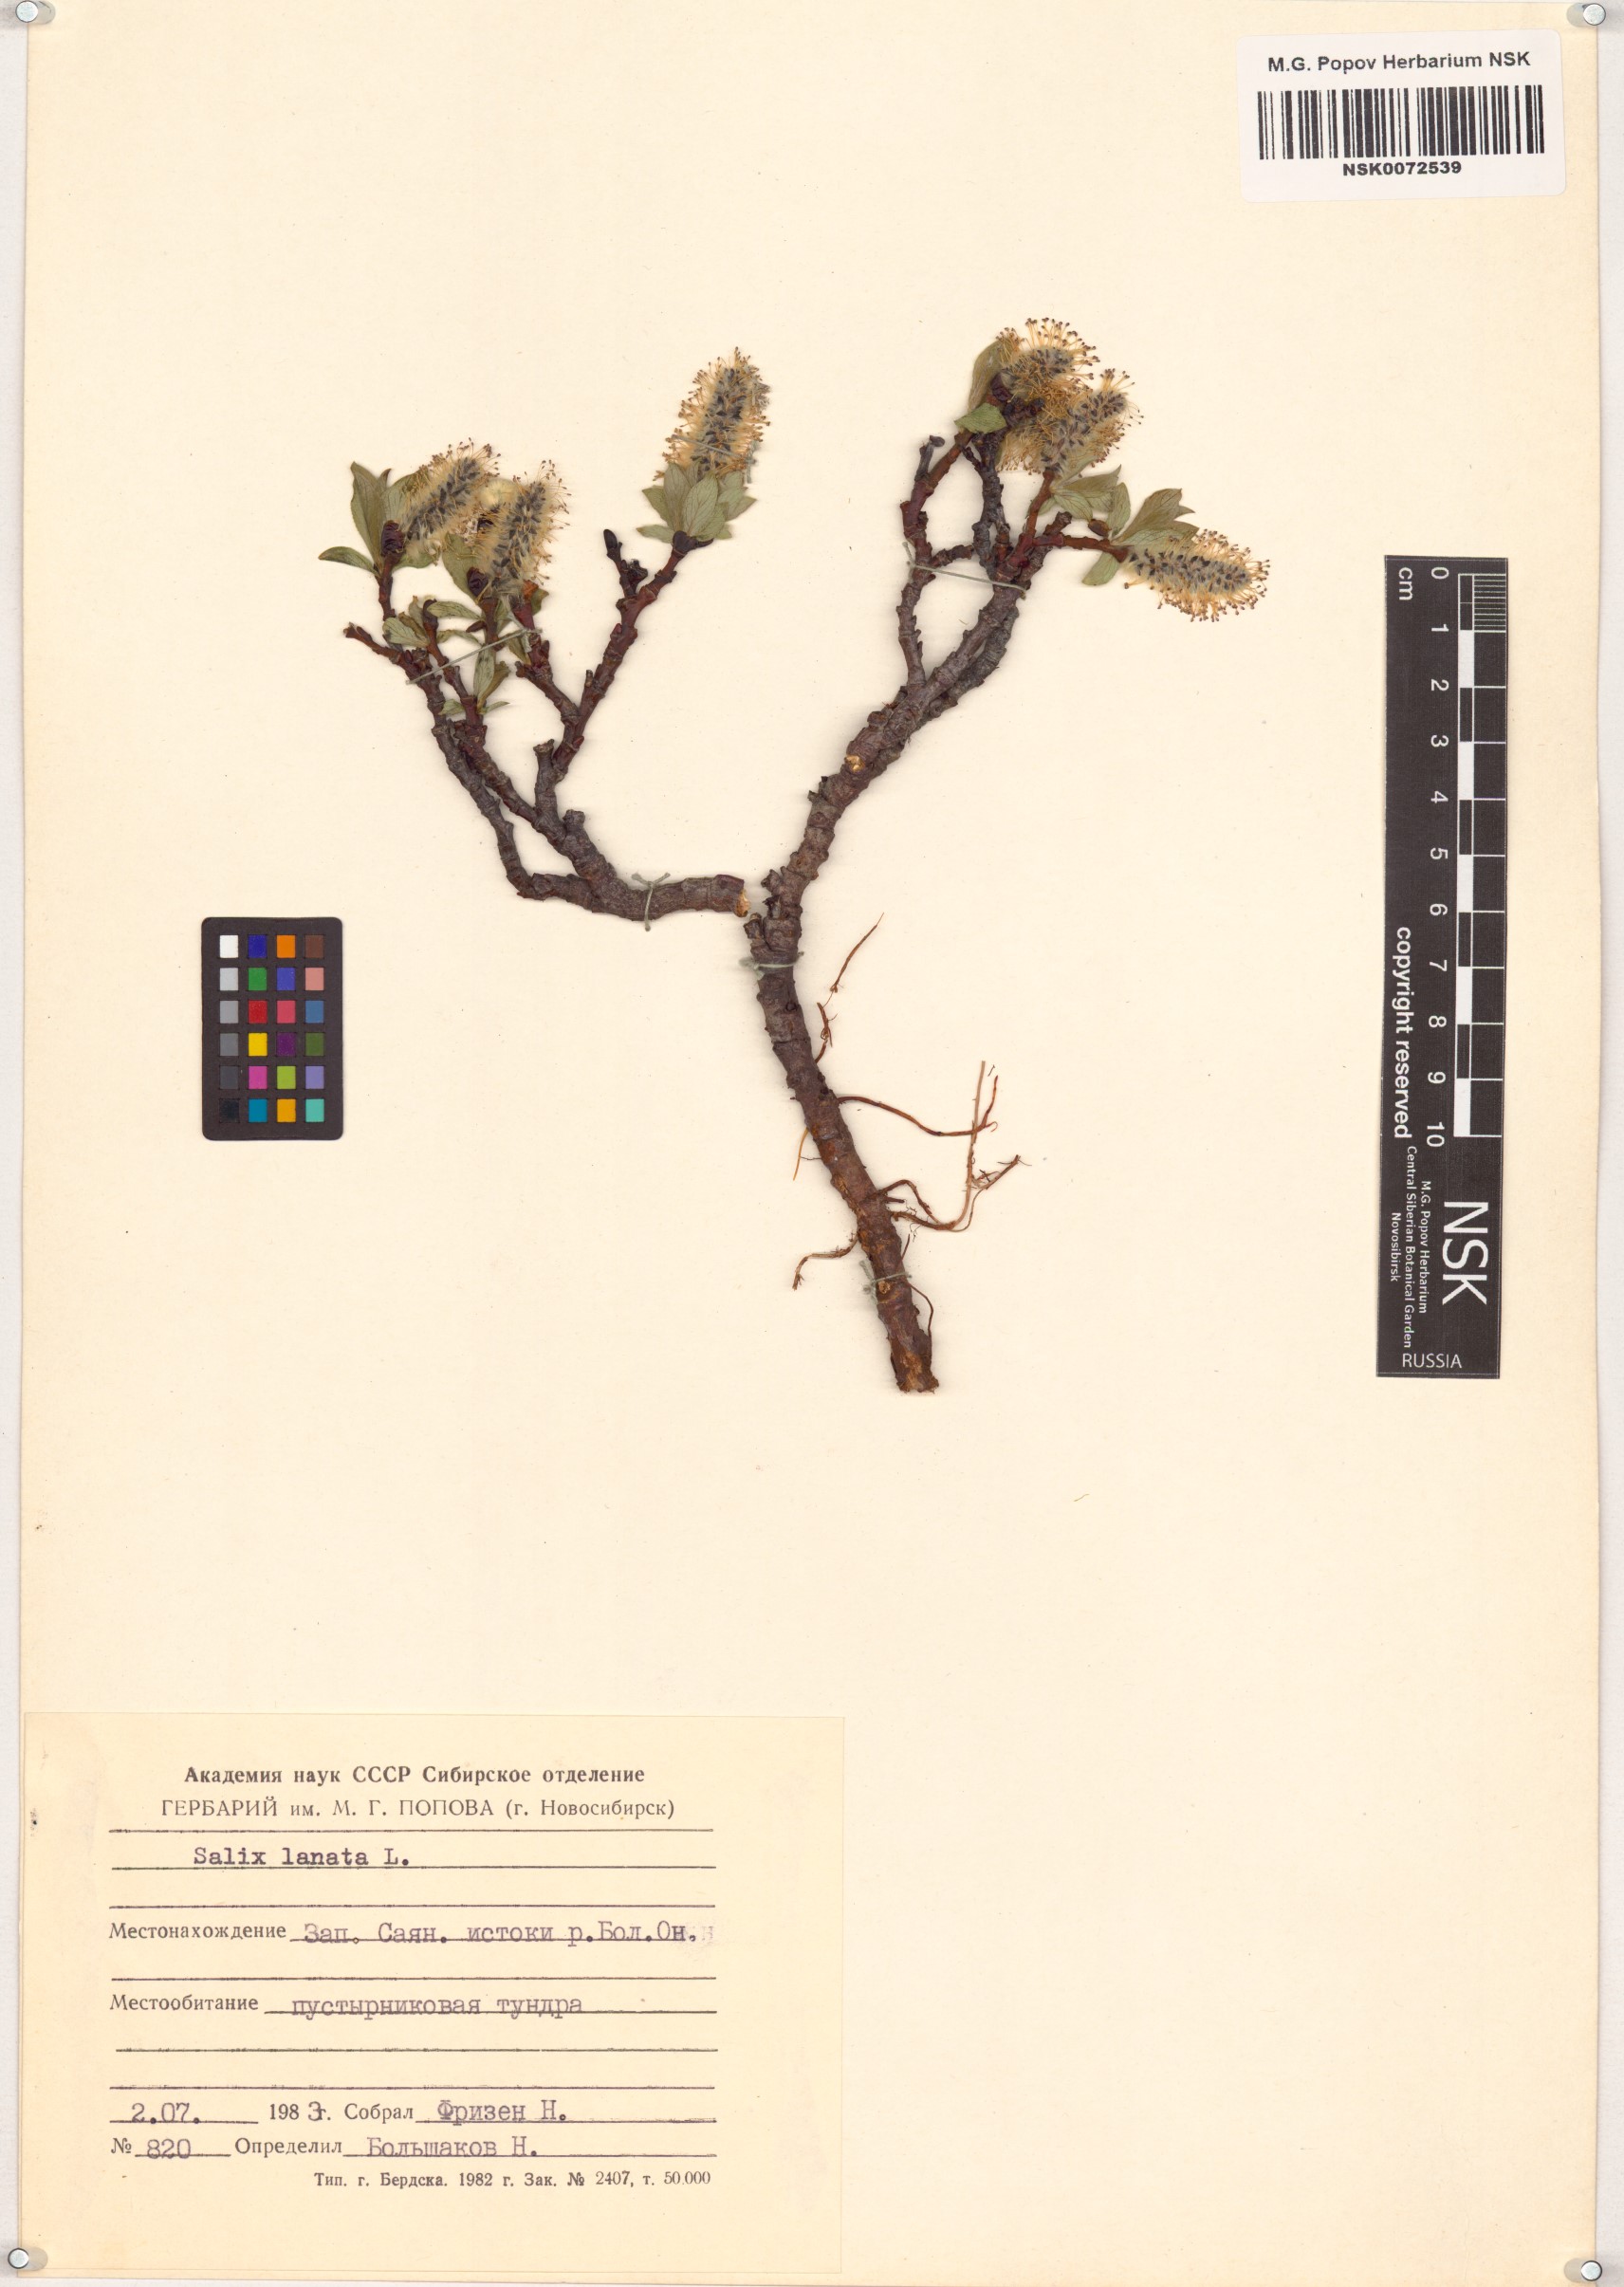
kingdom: Plantae
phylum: Tracheophyta
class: Magnoliopsida
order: Malpighiales
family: Salicaceae
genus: Salix
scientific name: Salix lanata
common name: Woolly willow
